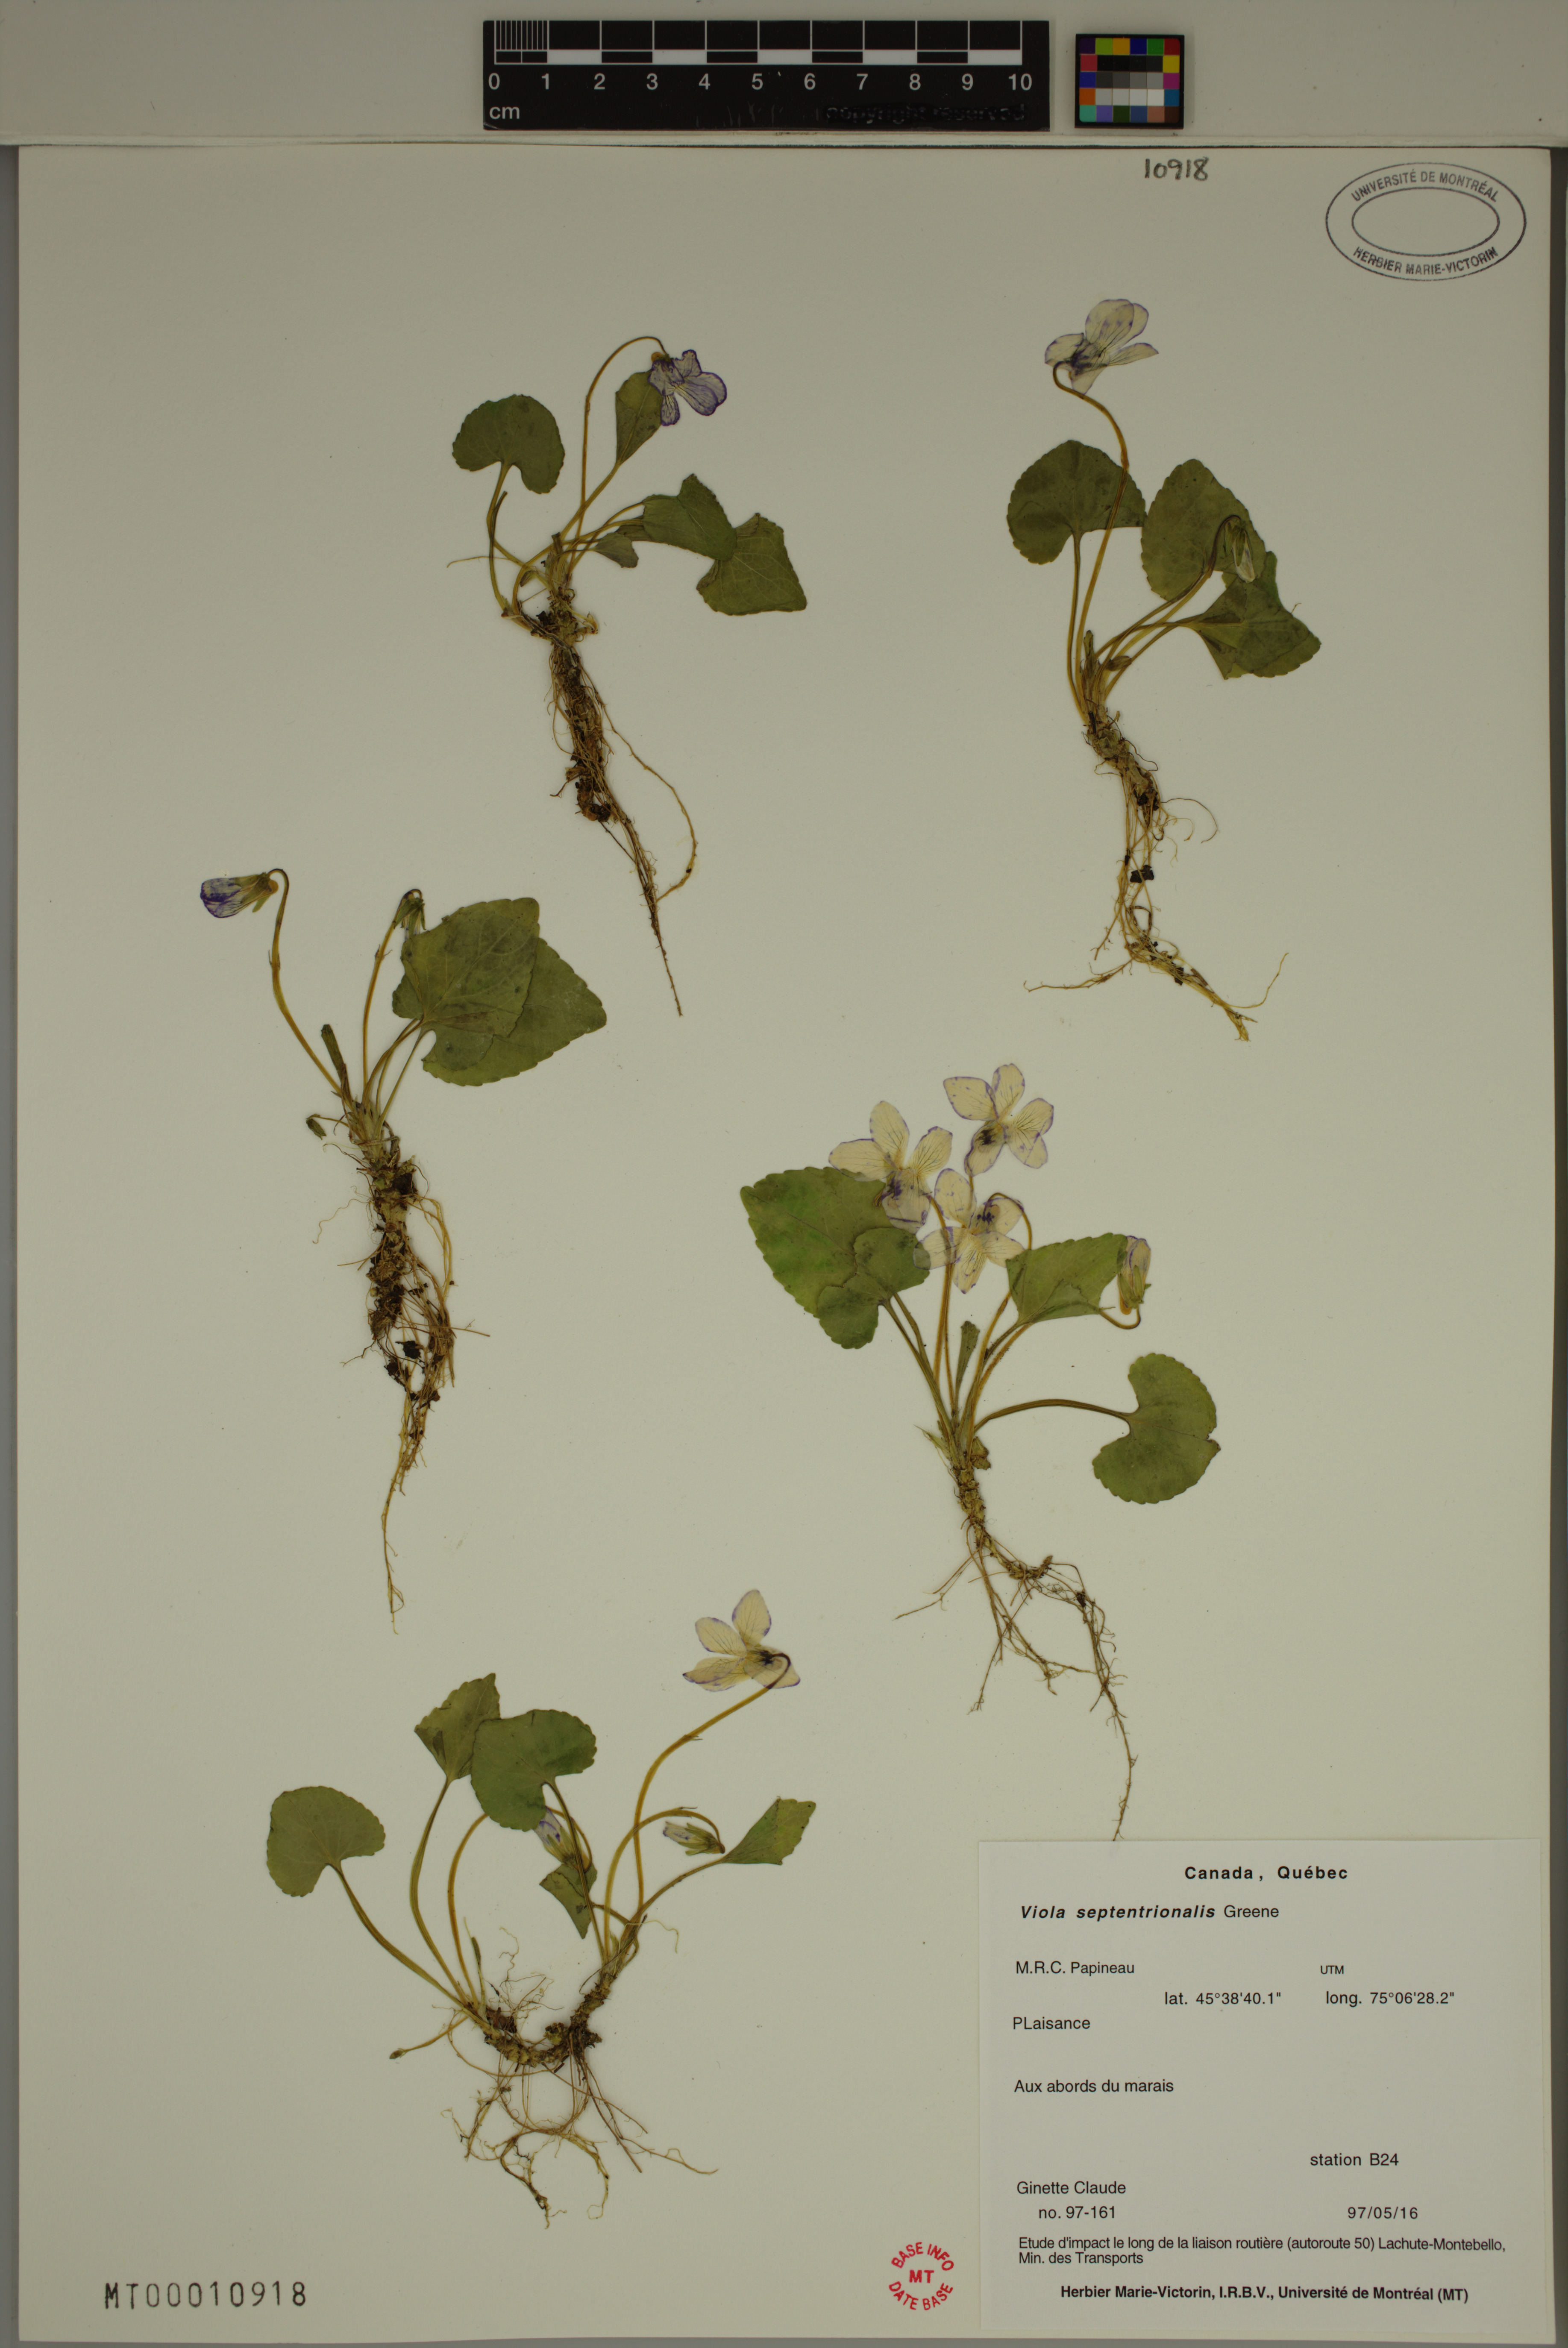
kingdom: Plantae
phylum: Tracheophyta
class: Magnoliopsida
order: Malpighiales
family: Violaceae
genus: Viola
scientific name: Viola sororia
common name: Dooryard violet
